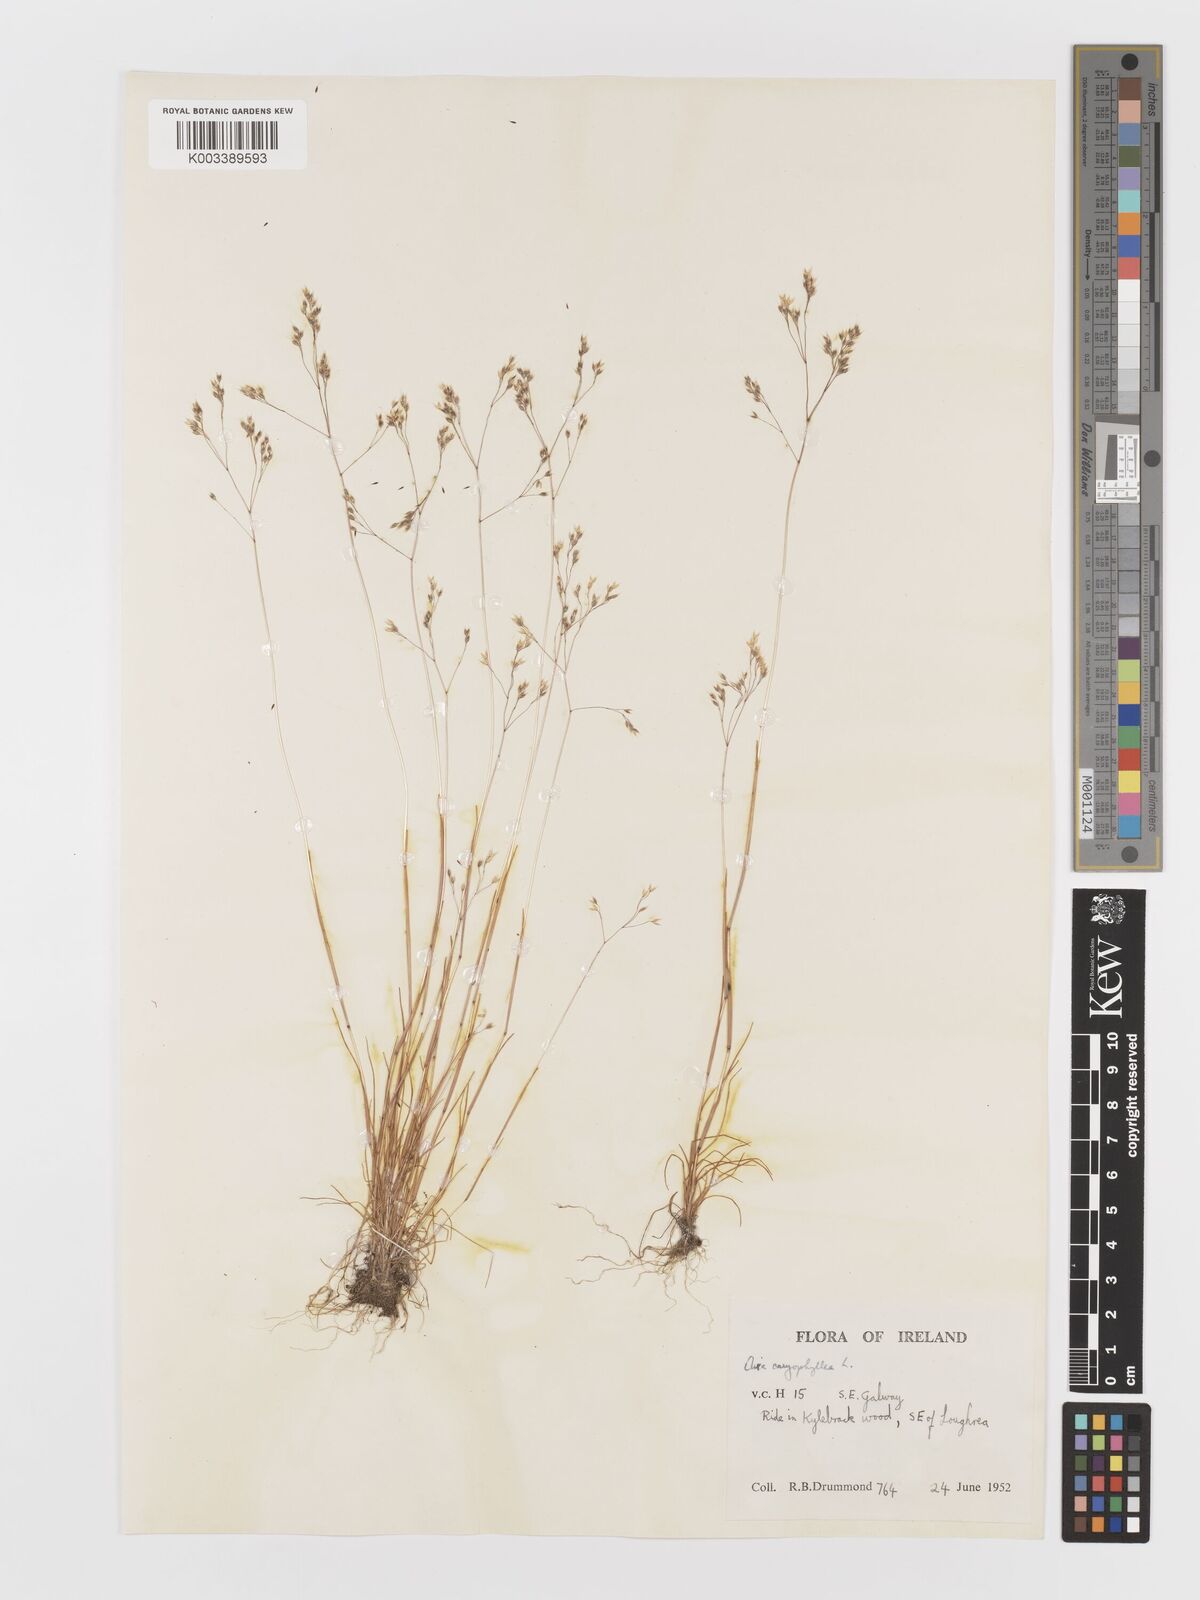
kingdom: Plantae
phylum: Tracheophyta
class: Liliopsida
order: Poales
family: Poaceae
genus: Aira
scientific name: Aira caryophyllea
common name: Silver hairgrass
